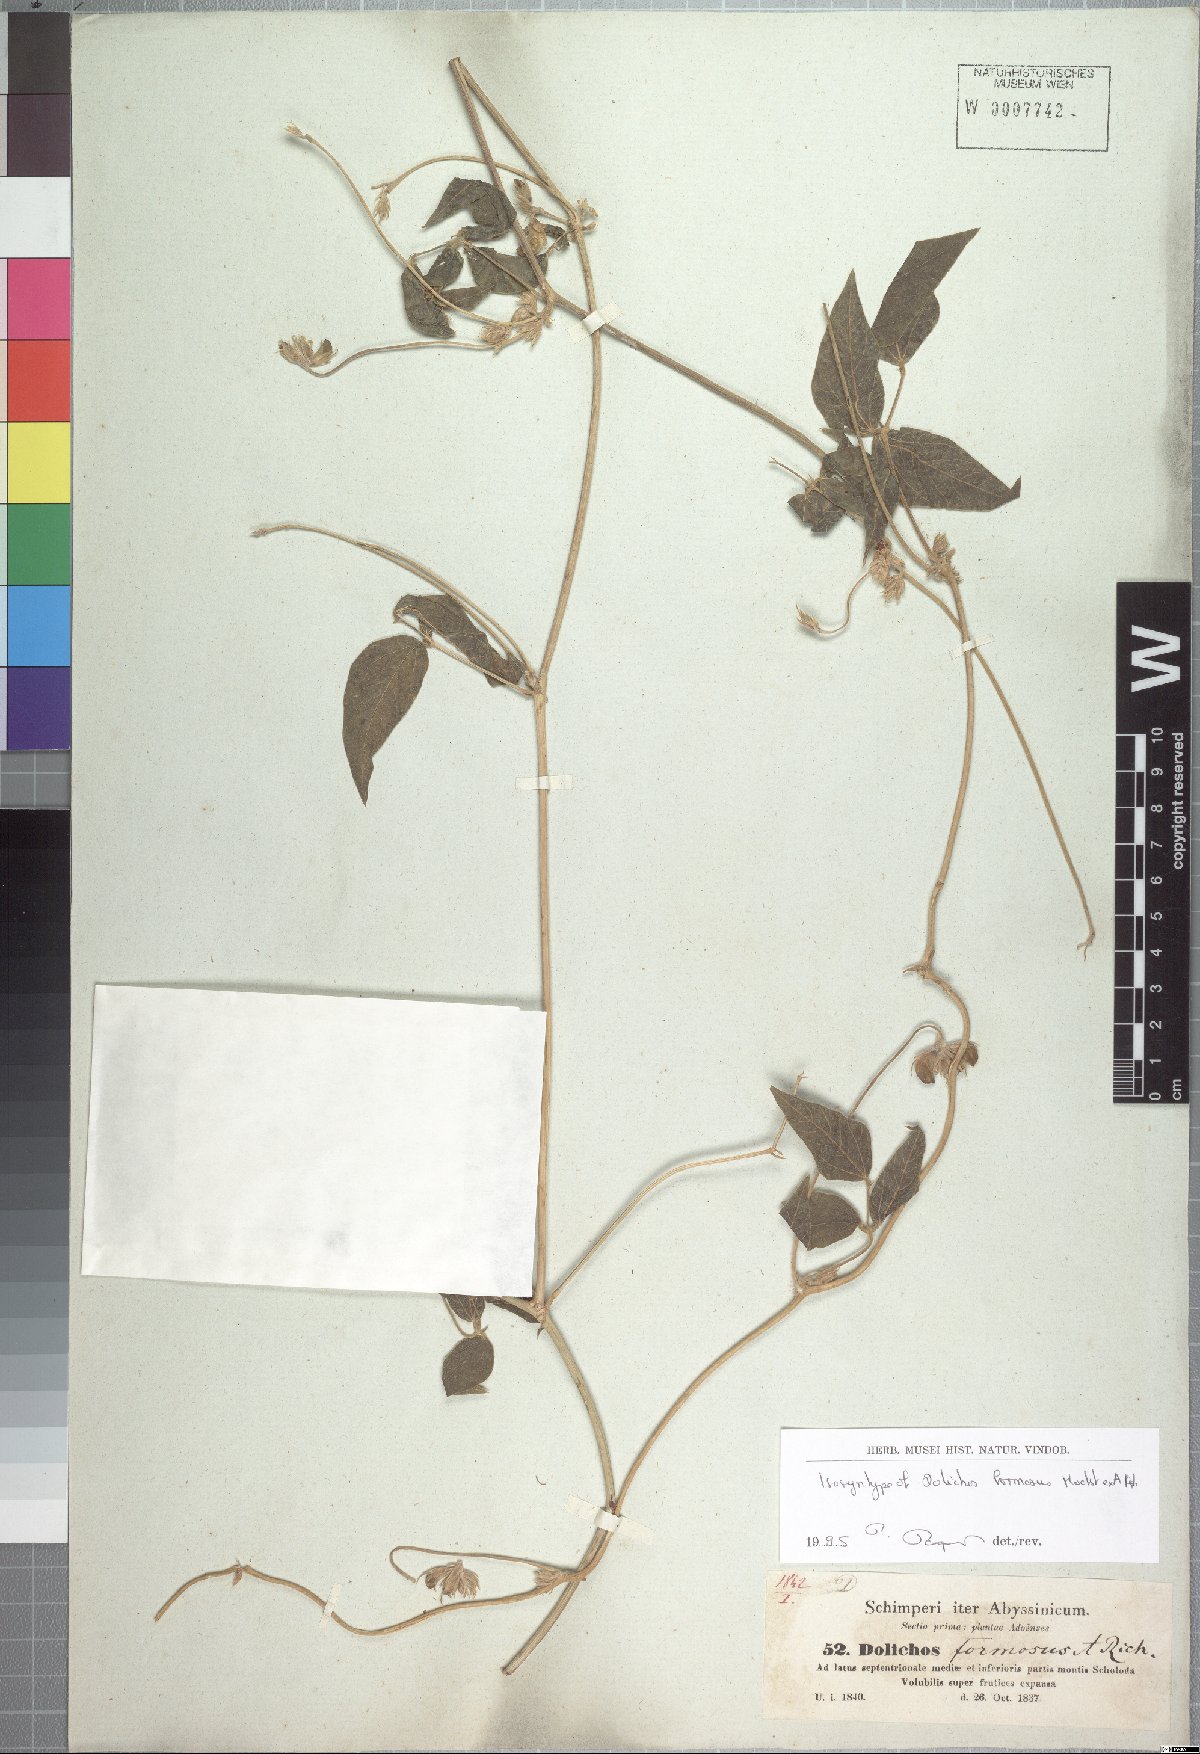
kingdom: Plantae
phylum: Tracheophyta
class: Magnoliopsida
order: Fabales
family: Fabaceae
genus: Dolichos
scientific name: Dolichos sericeus
